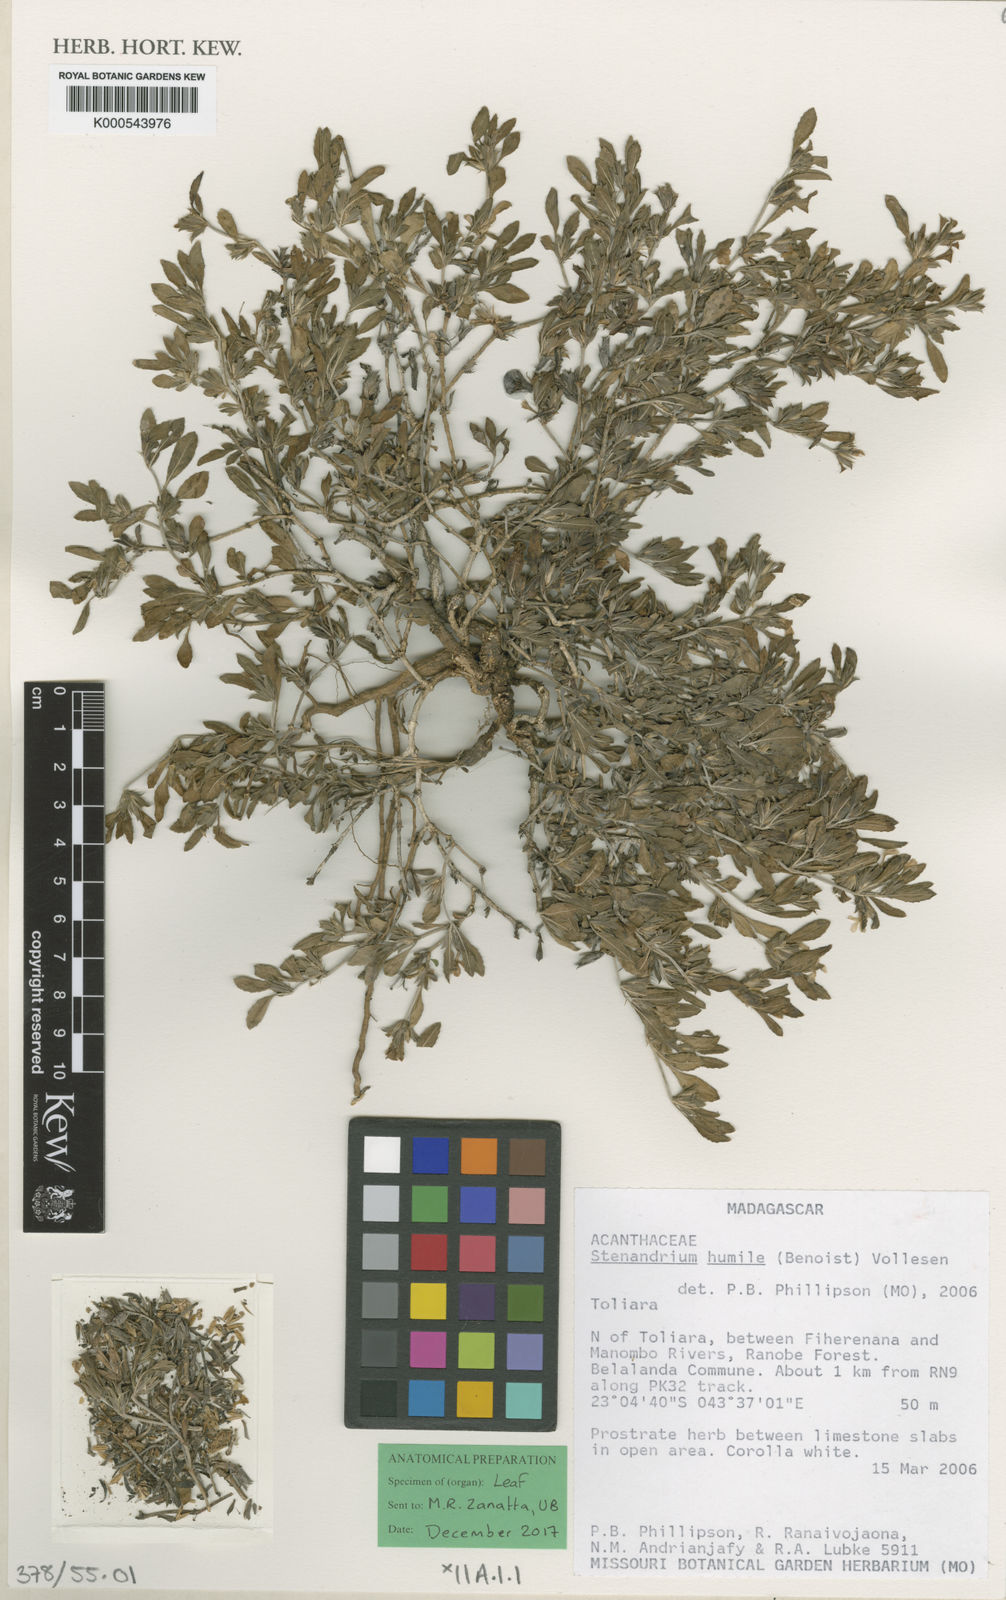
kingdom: Plantae
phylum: Tracheophyta
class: Magnoliopsida
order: Lamiales
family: Acanthaceae
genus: Stenandriopsis
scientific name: Stenandriopsis keraudrenae
